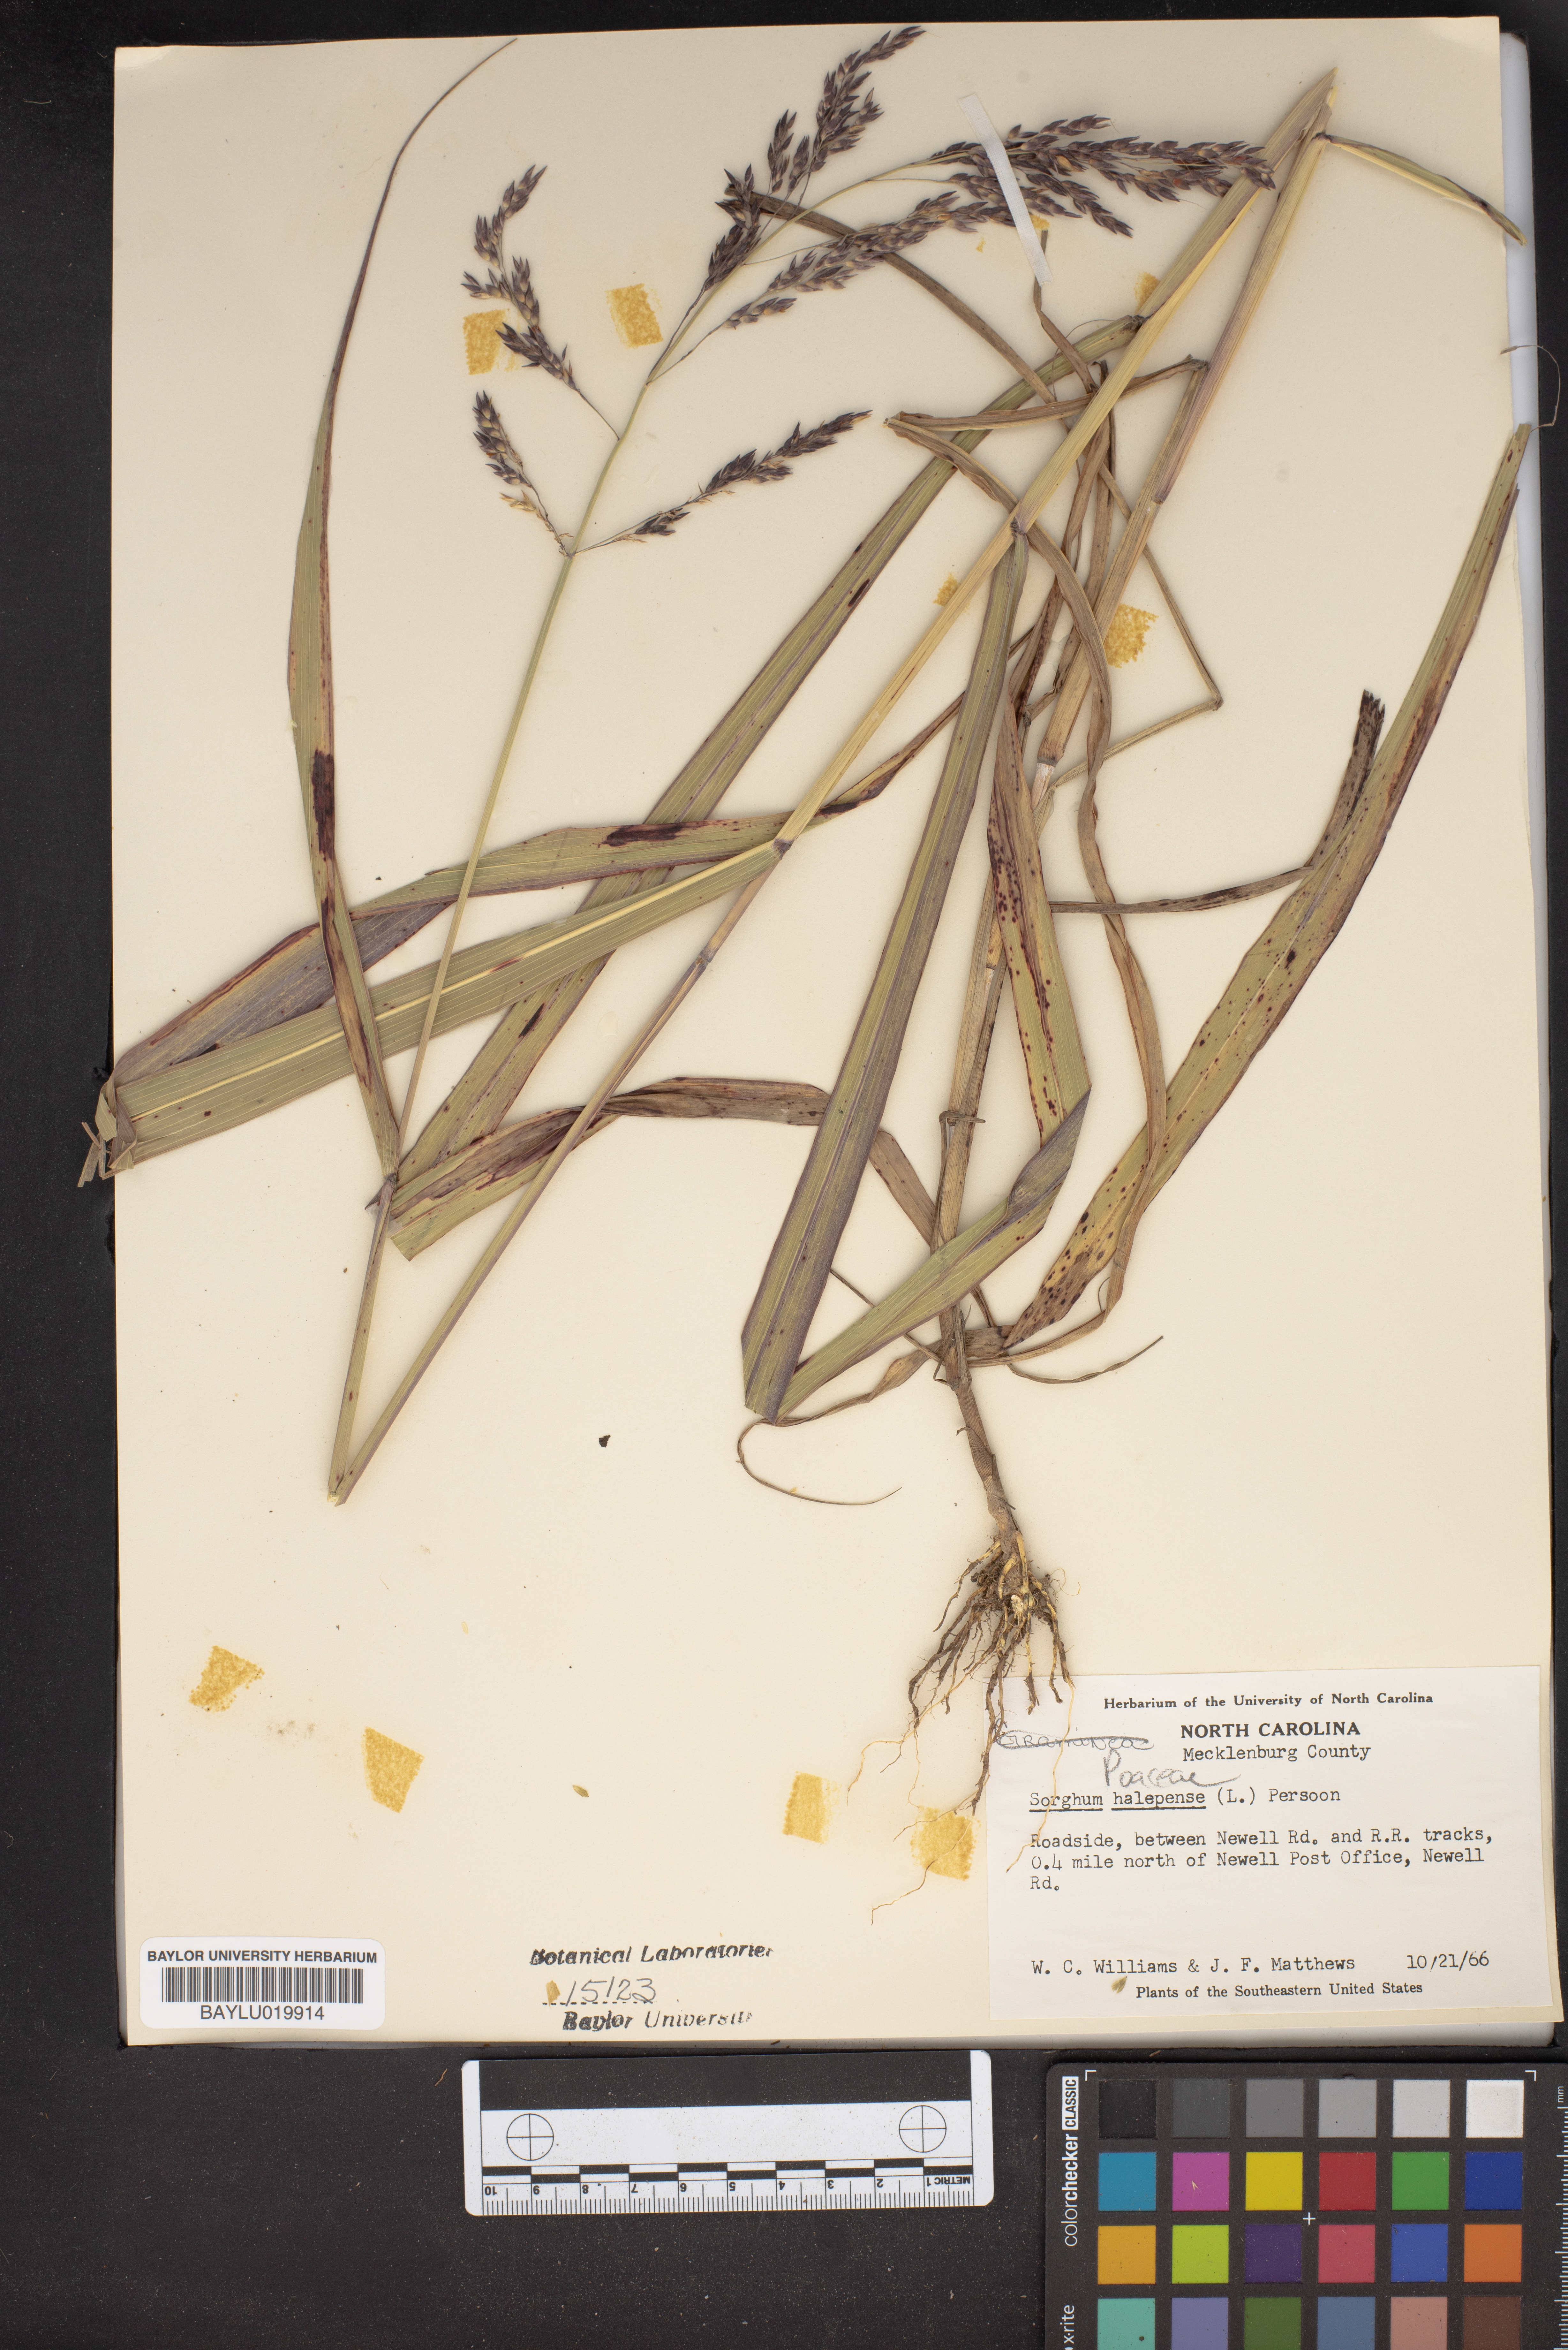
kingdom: Plantae
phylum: Tracheophyta
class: Liliopsida
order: Poales
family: Poaceae
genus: Sorghum
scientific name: Sorghum halepense
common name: Johnson-grass
